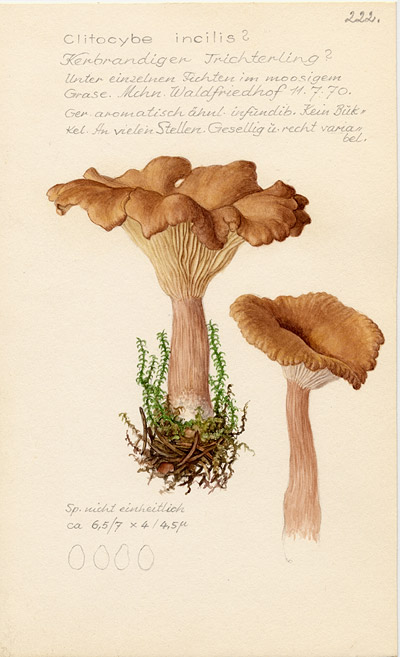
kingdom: Fungi
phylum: Basidiomycota
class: Agaricomycetes
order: Agaricales
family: Tricholomataceae
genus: Clitocybe
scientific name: Clitocybe incilis
